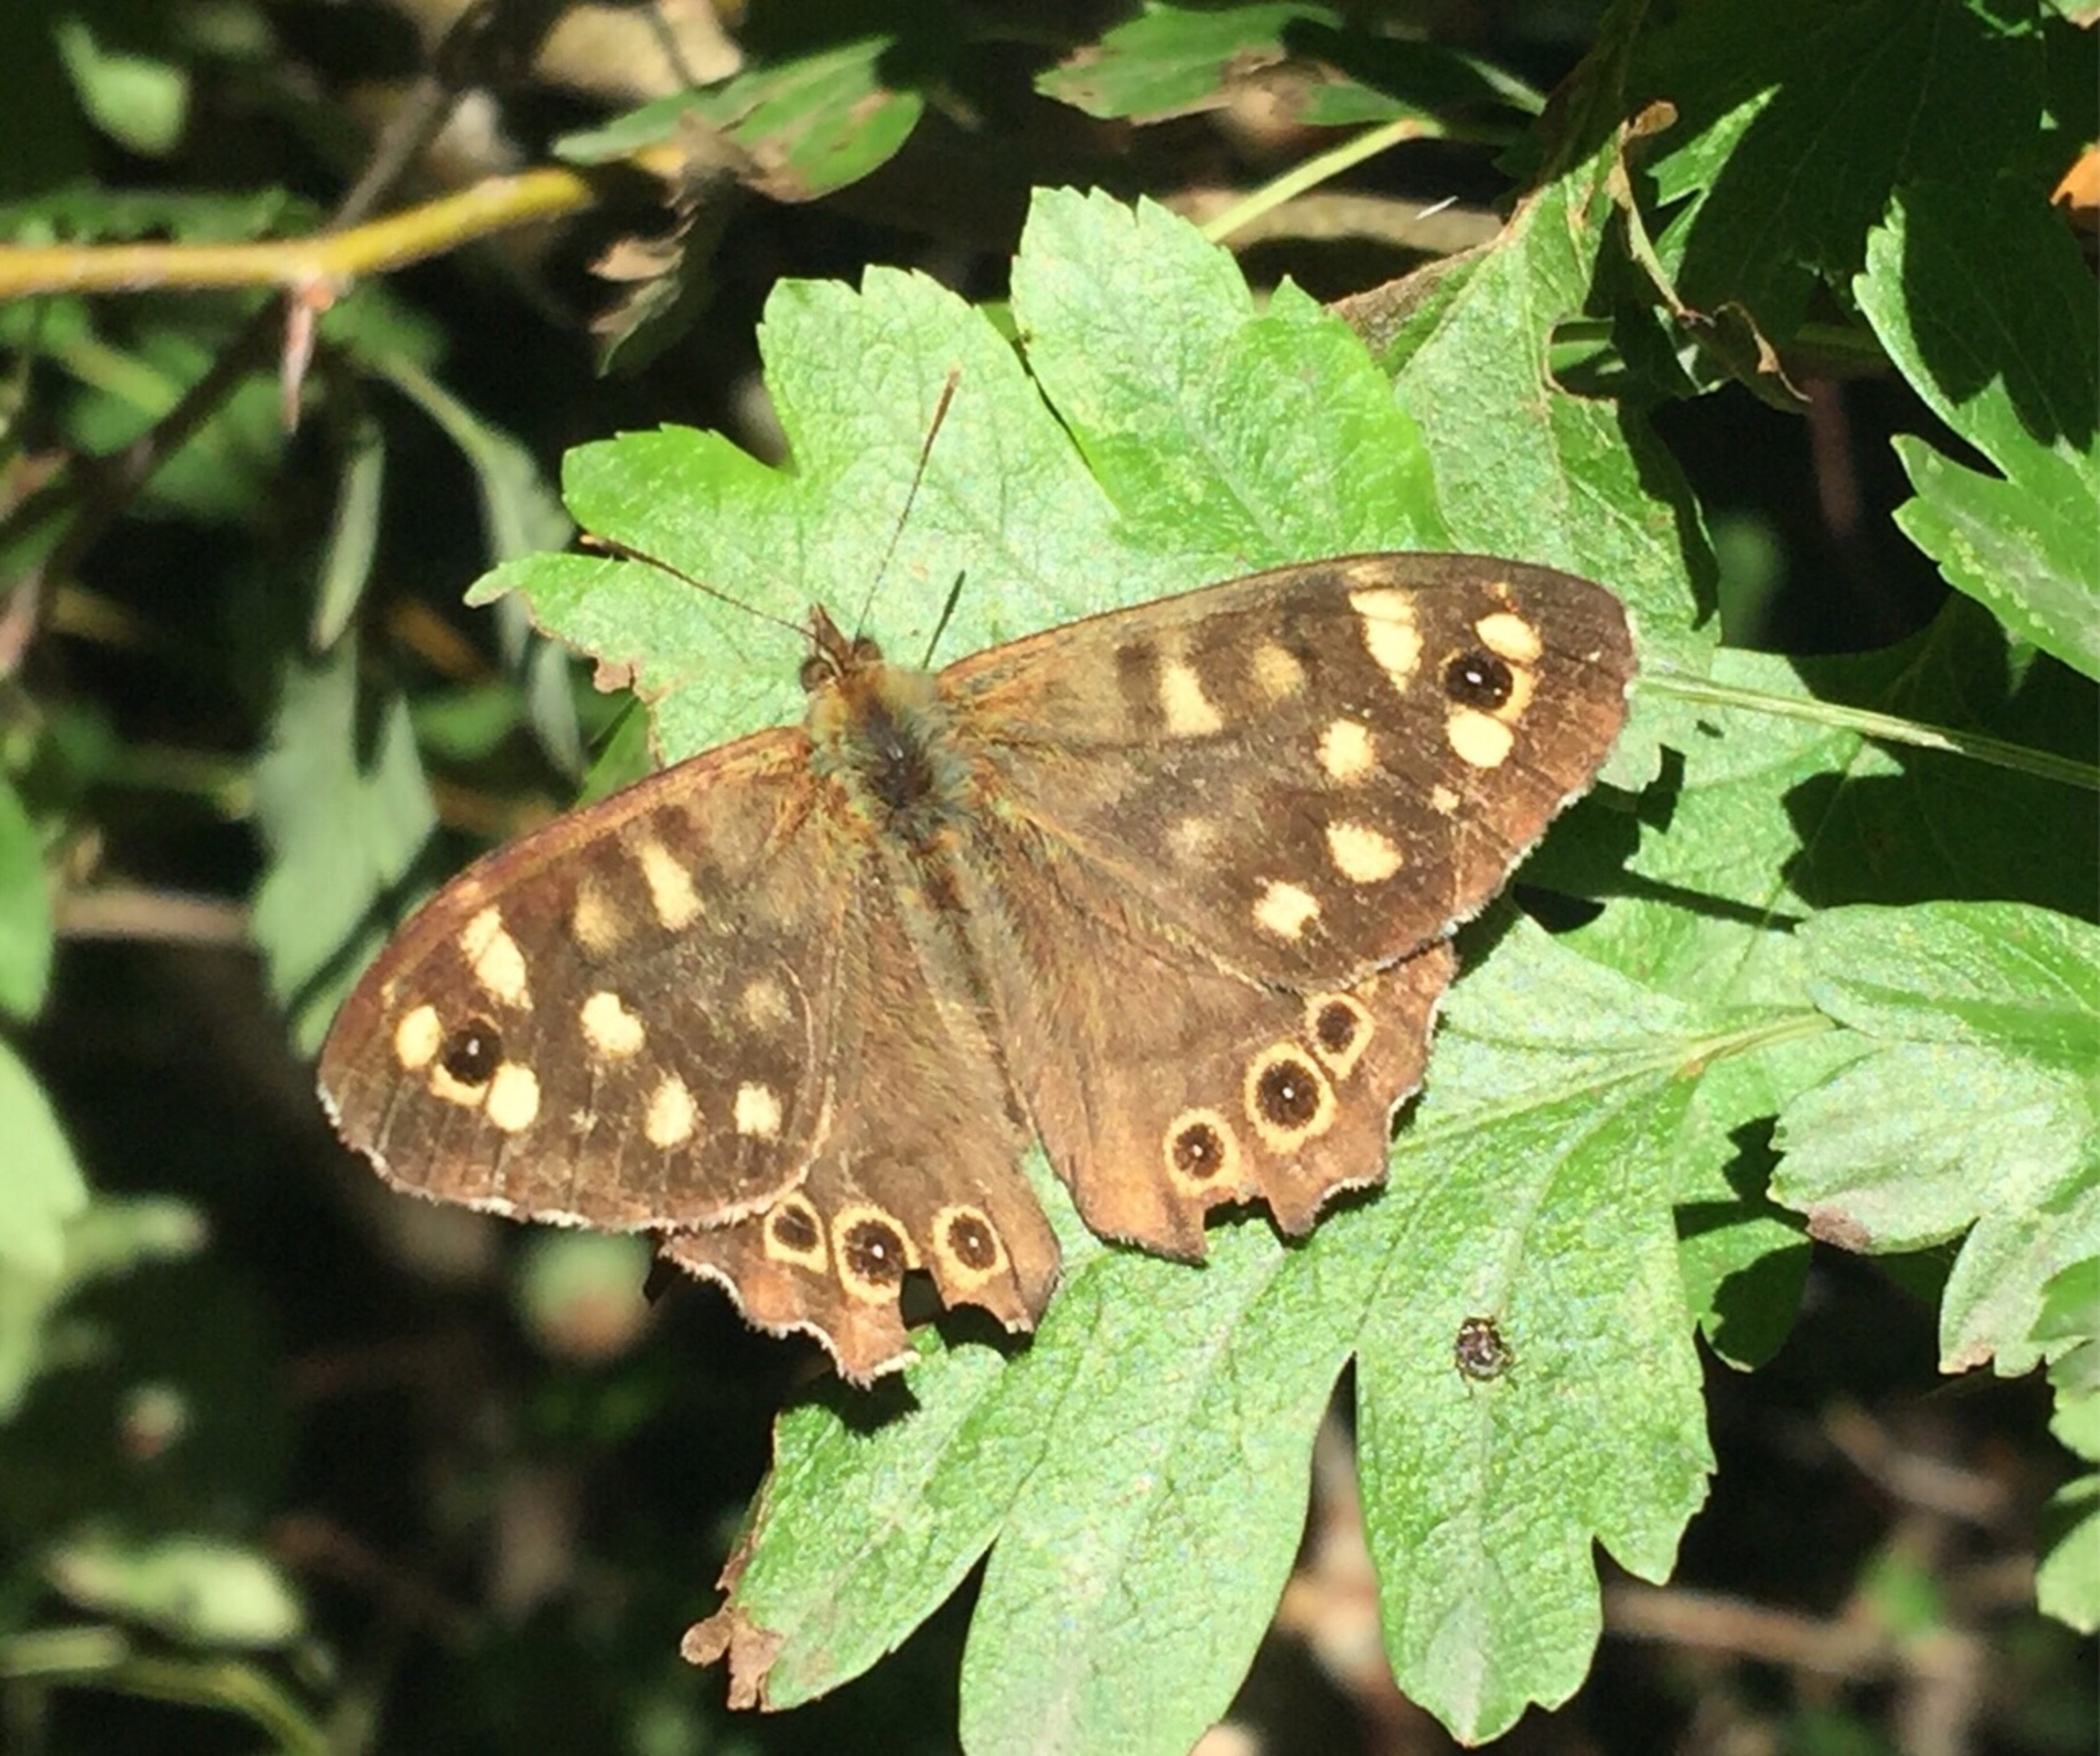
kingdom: Animalia
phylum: Arthropoda
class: Insecta
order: Lepidoptera
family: Nymphalidae
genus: Pararge
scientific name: Pararge aegeria
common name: Skovrandøje
